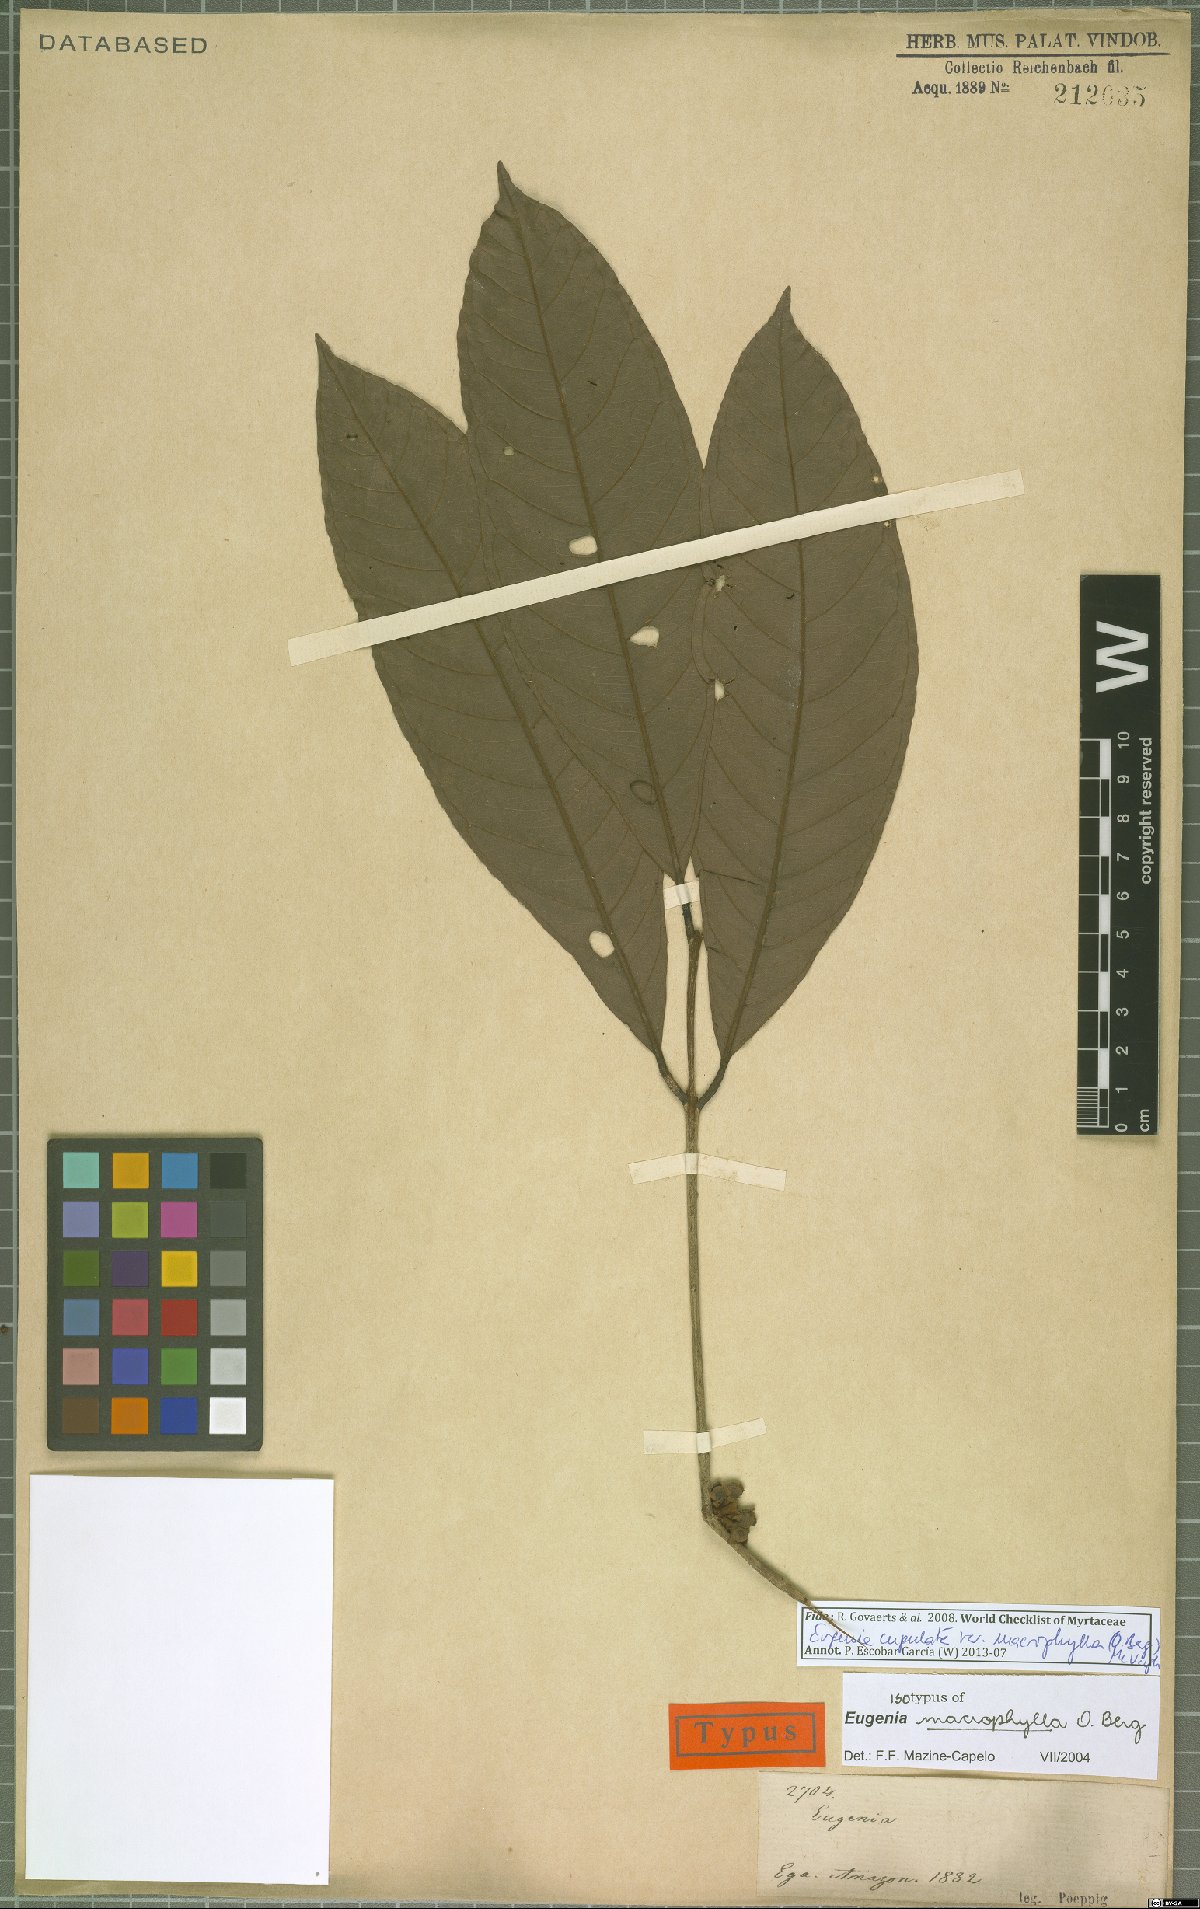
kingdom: Plantae
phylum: Tracheophyta
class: Magnoliopsida
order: Myrtales
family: Myrtaceae
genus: Eugenia
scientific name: Eugenia glomeruliflora
